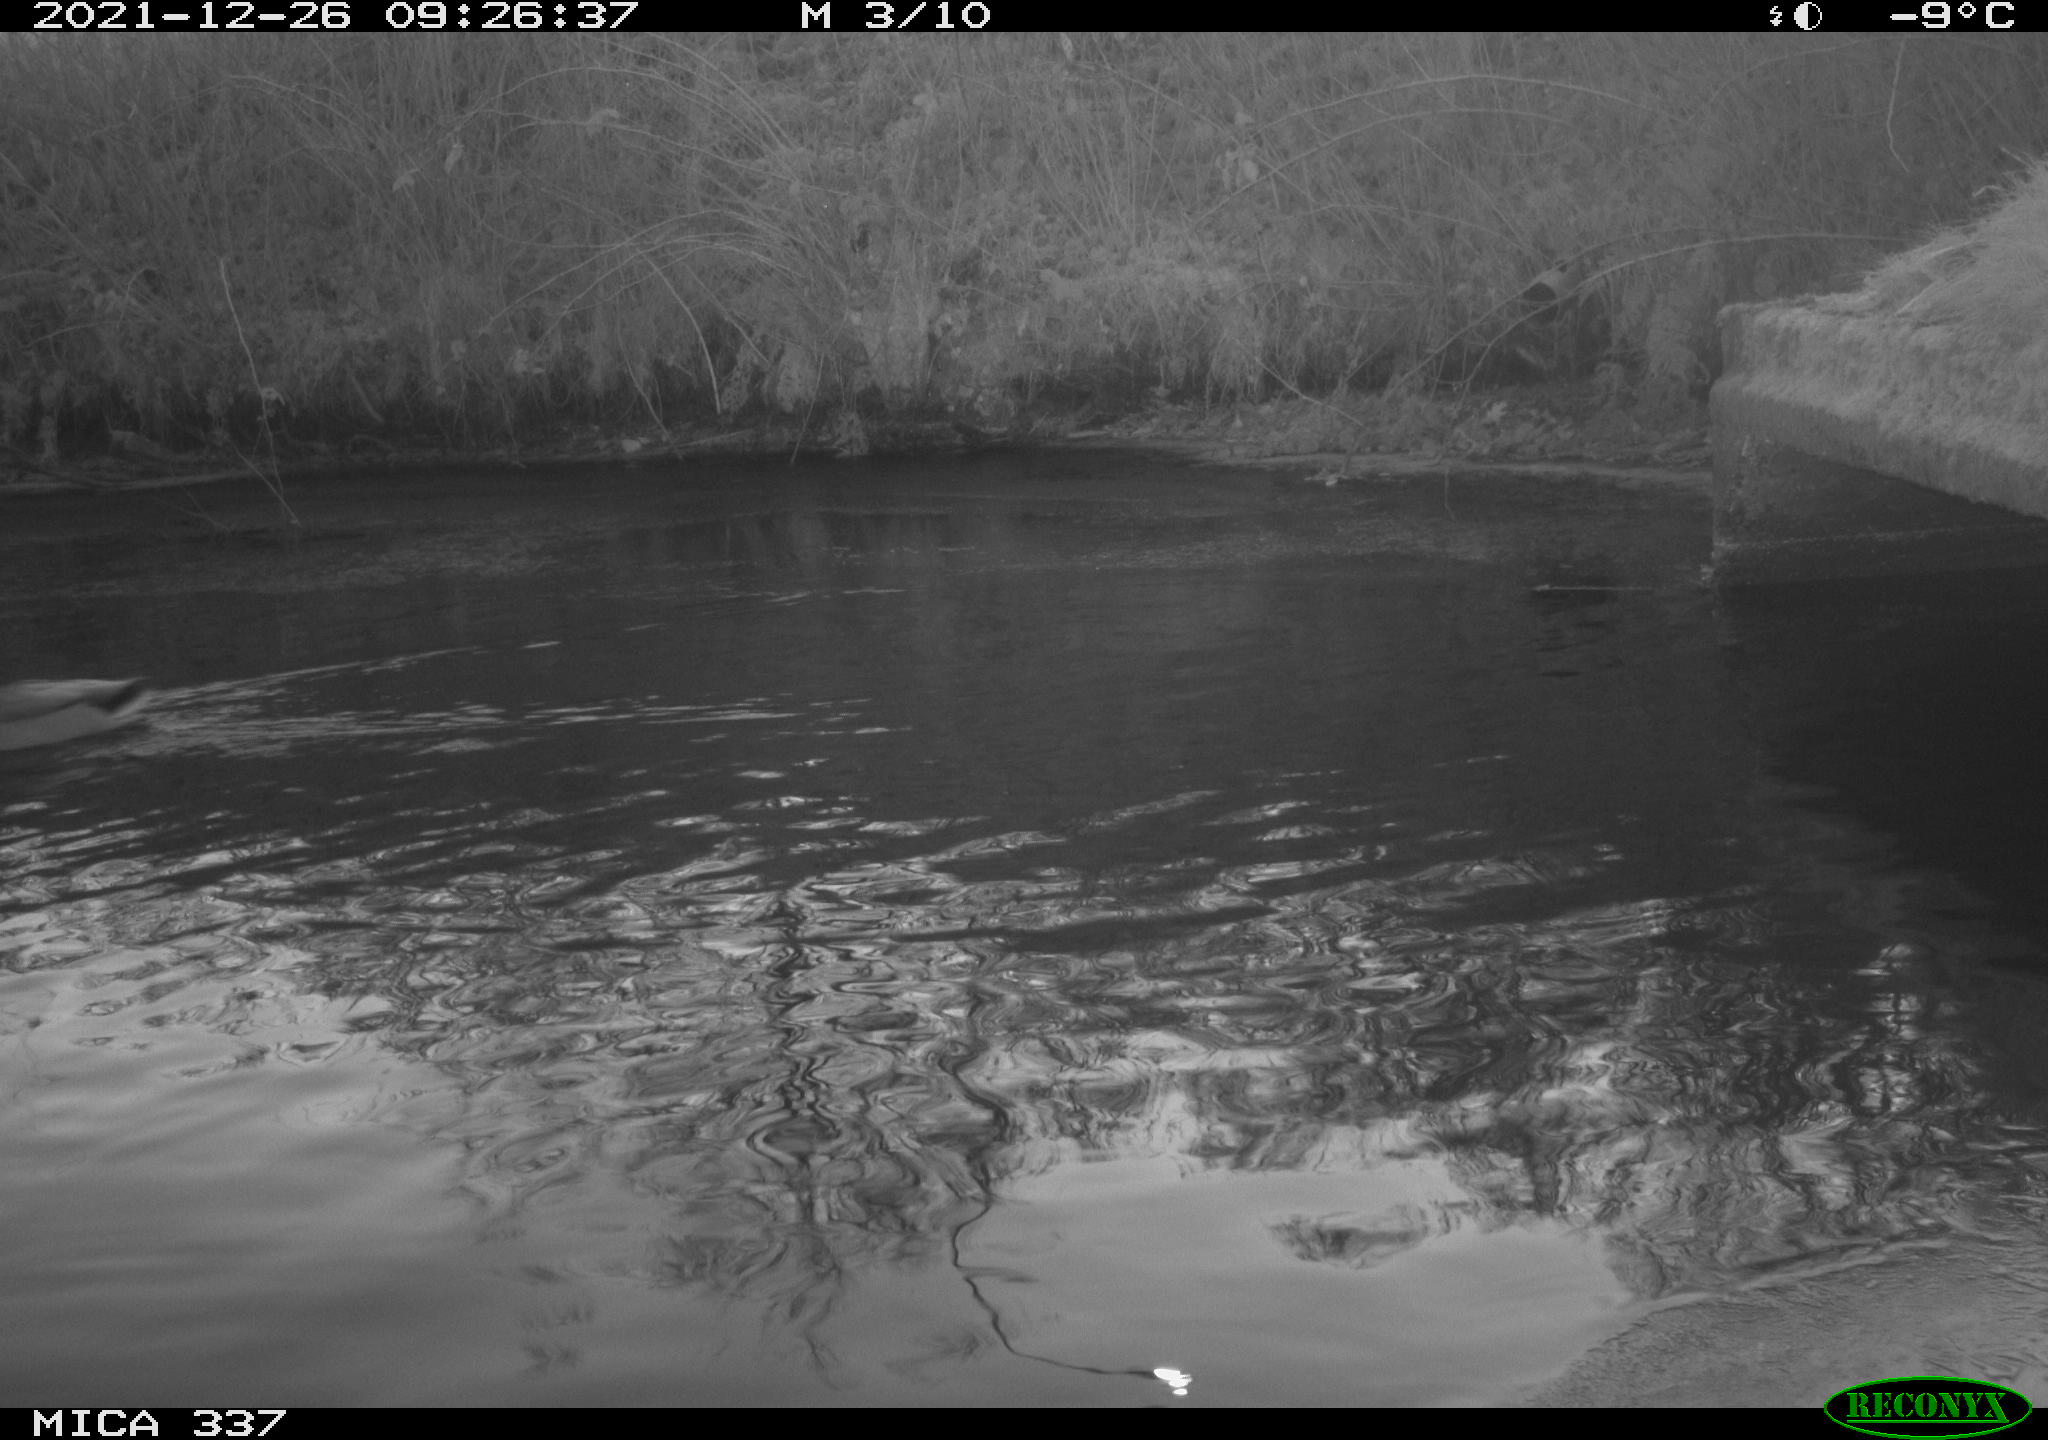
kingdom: Animalia
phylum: Chordata
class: Aves
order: Anseriformes
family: Anatidae
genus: Anas
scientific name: Anas platyrhynchos
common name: Mallard
